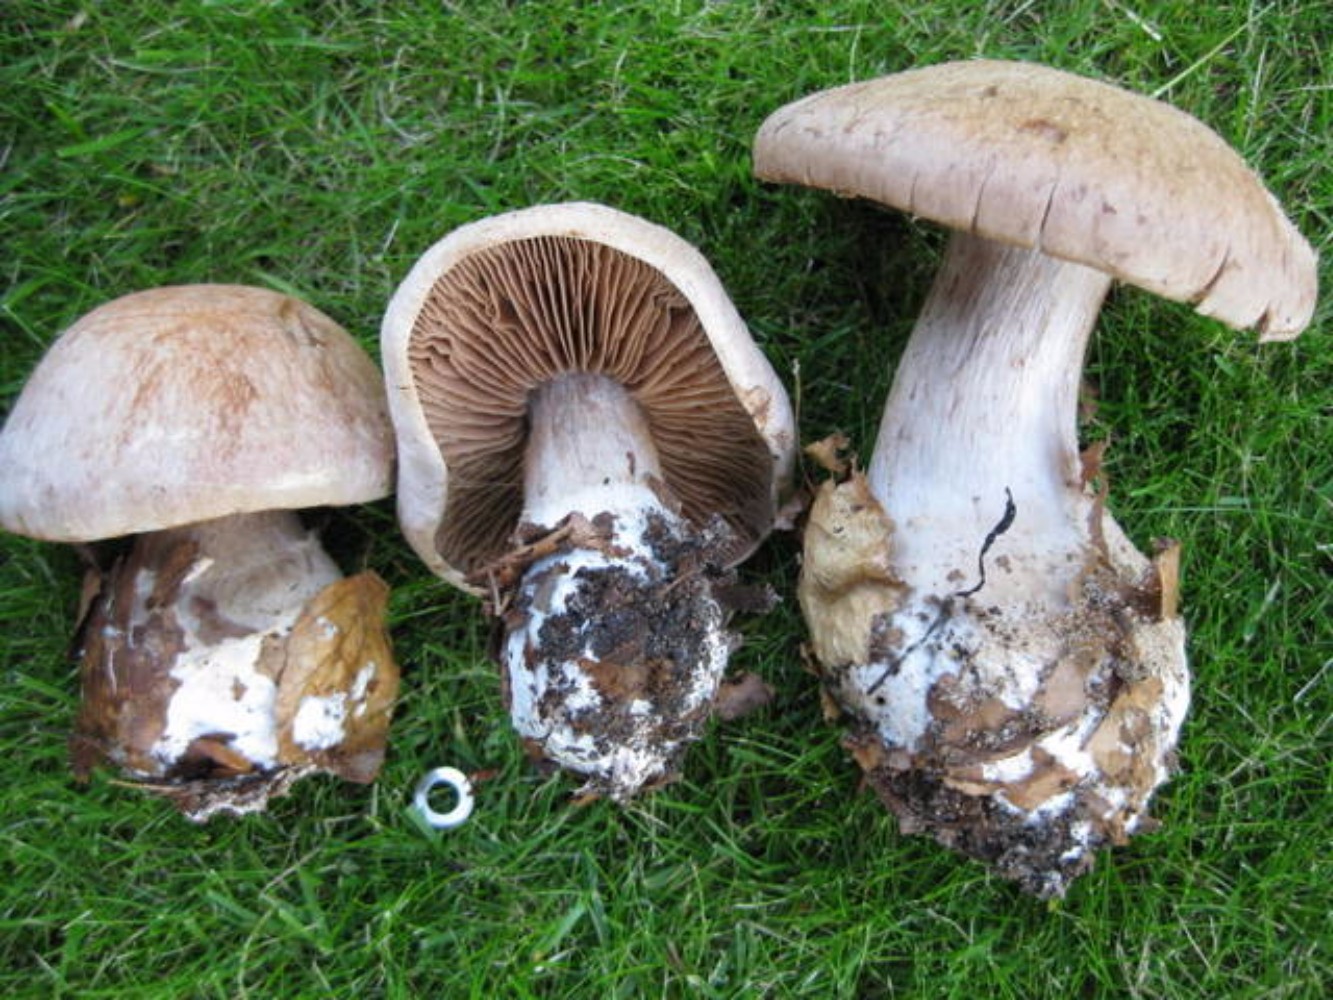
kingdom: Fungi
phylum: Basidiomycota
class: Agaricomycetes
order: Agaricales
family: Cortinariaceae
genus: Cortinarius
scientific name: Cortinarius
